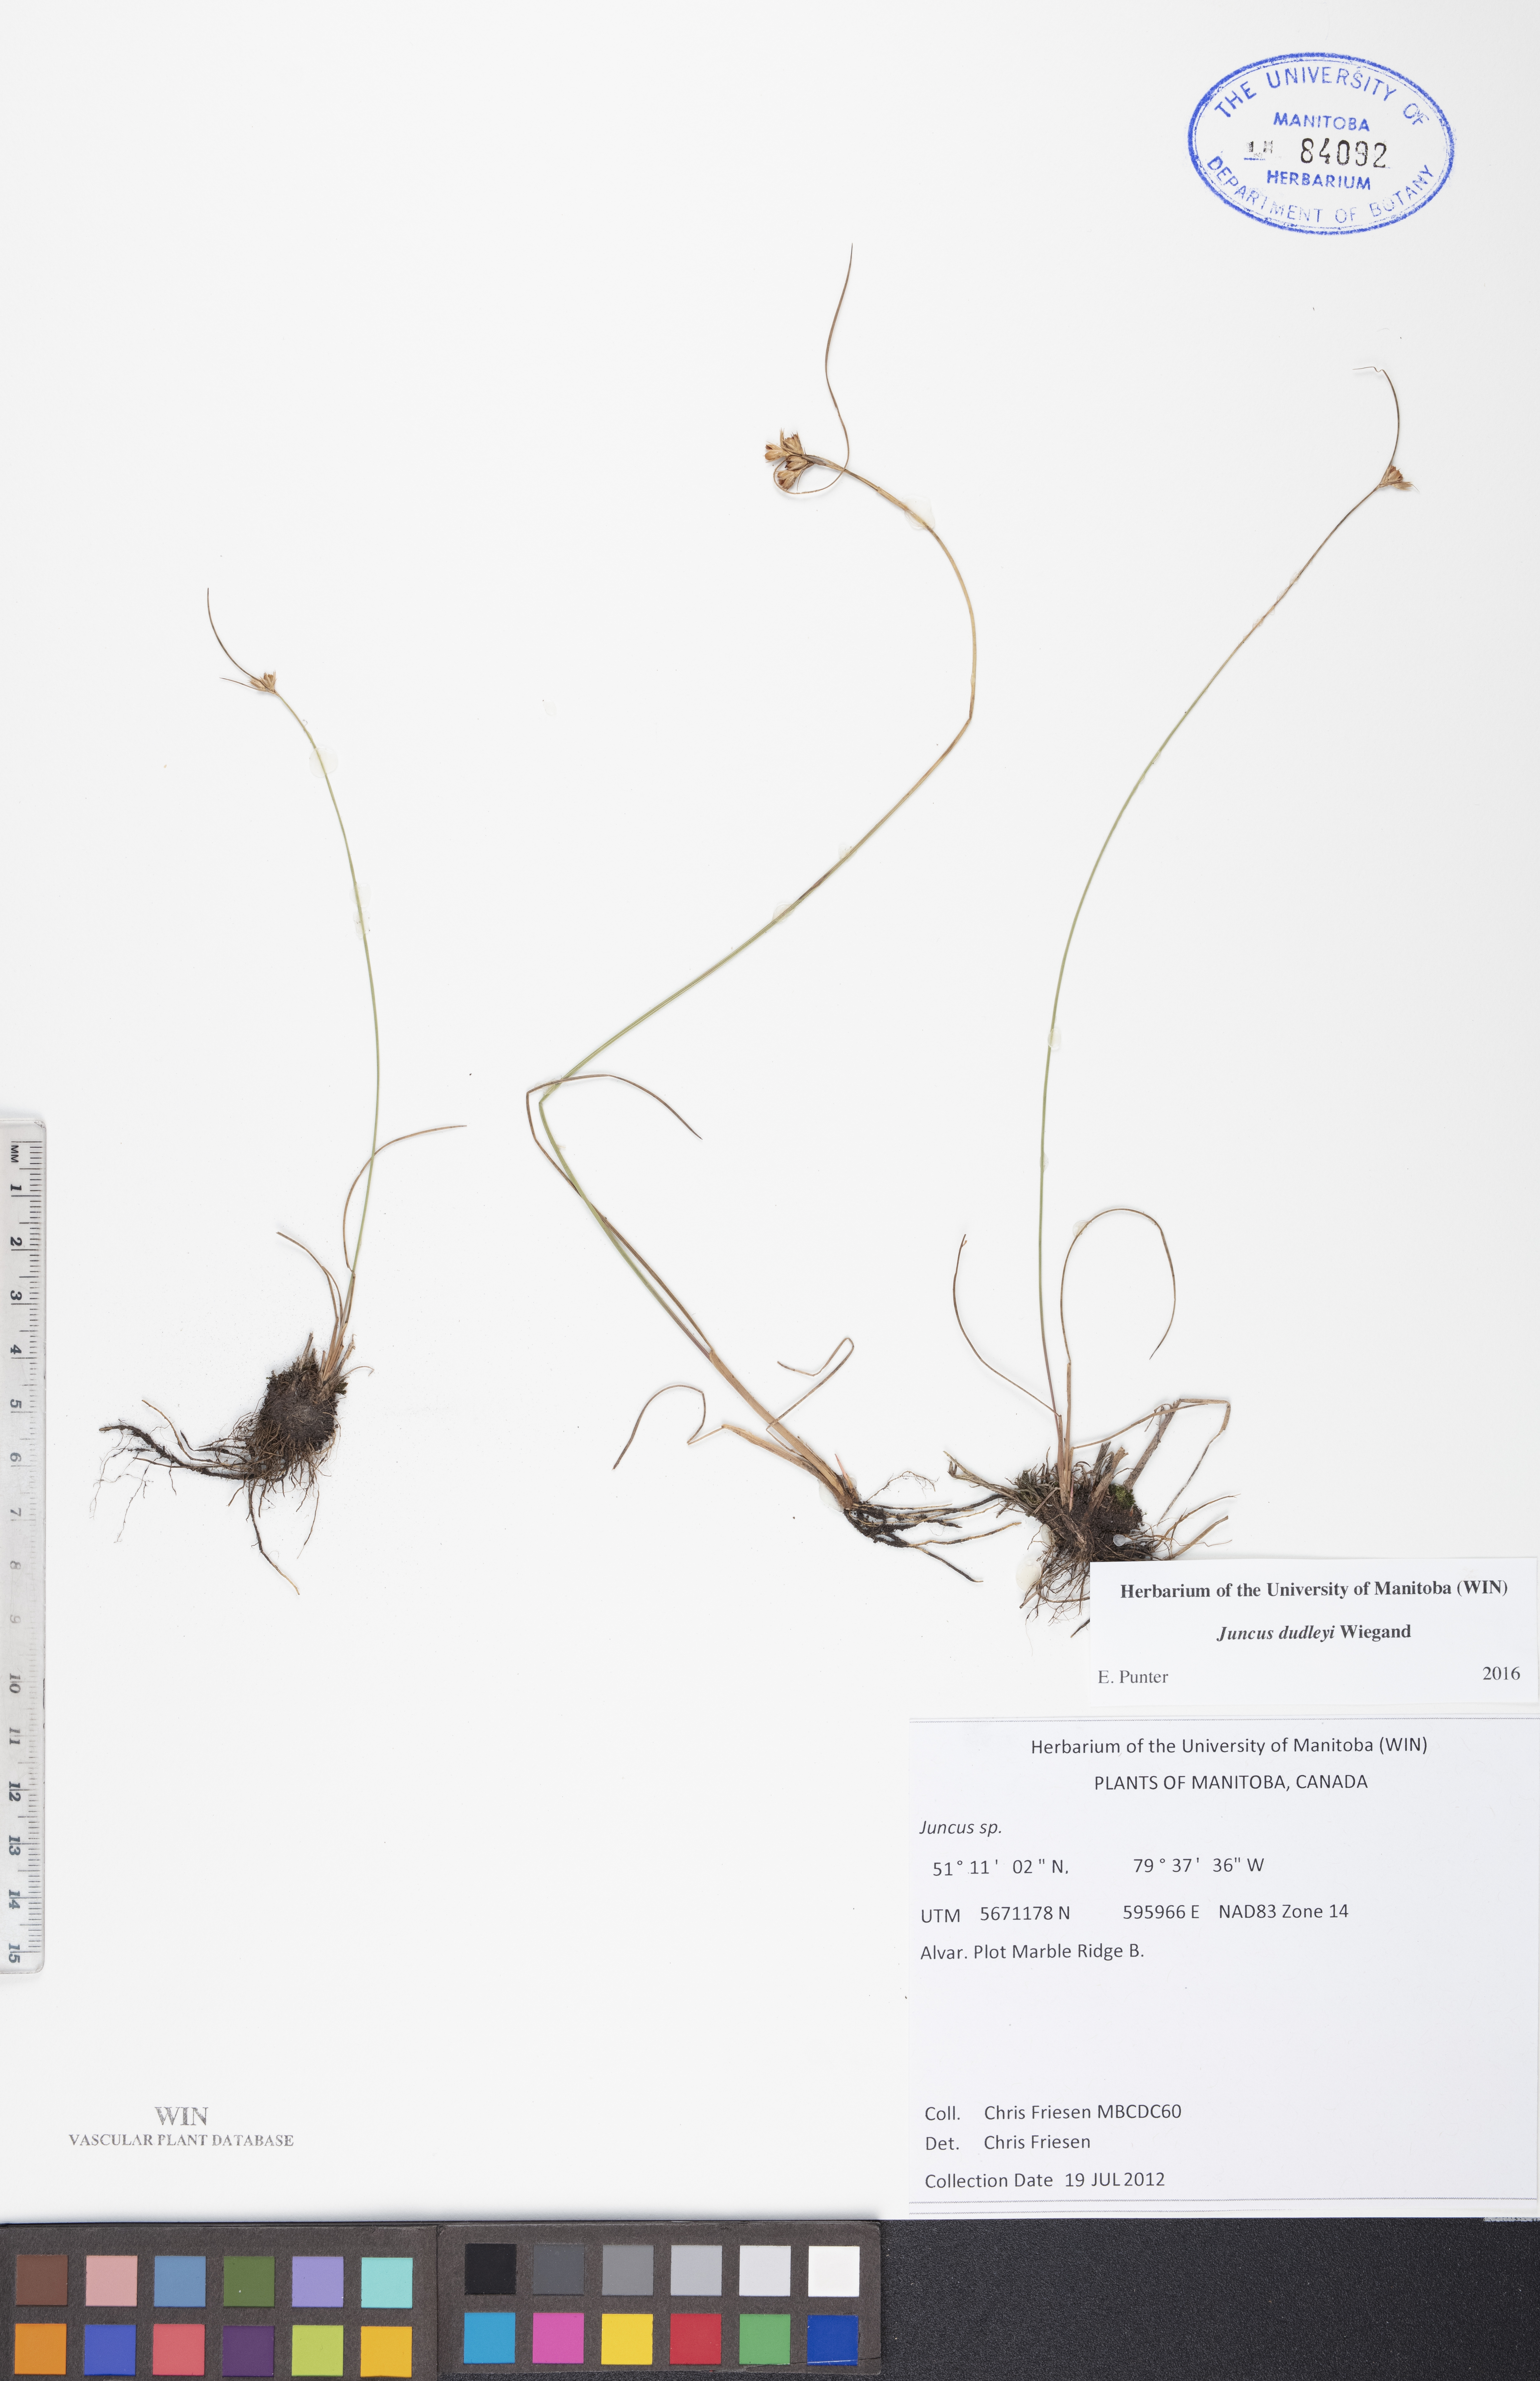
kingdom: Plantae
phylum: Tracheophyta
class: Liliopsida
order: Poales
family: Juncaceae
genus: Juncus
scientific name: Juncus dudleyi
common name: Dudley's rush
